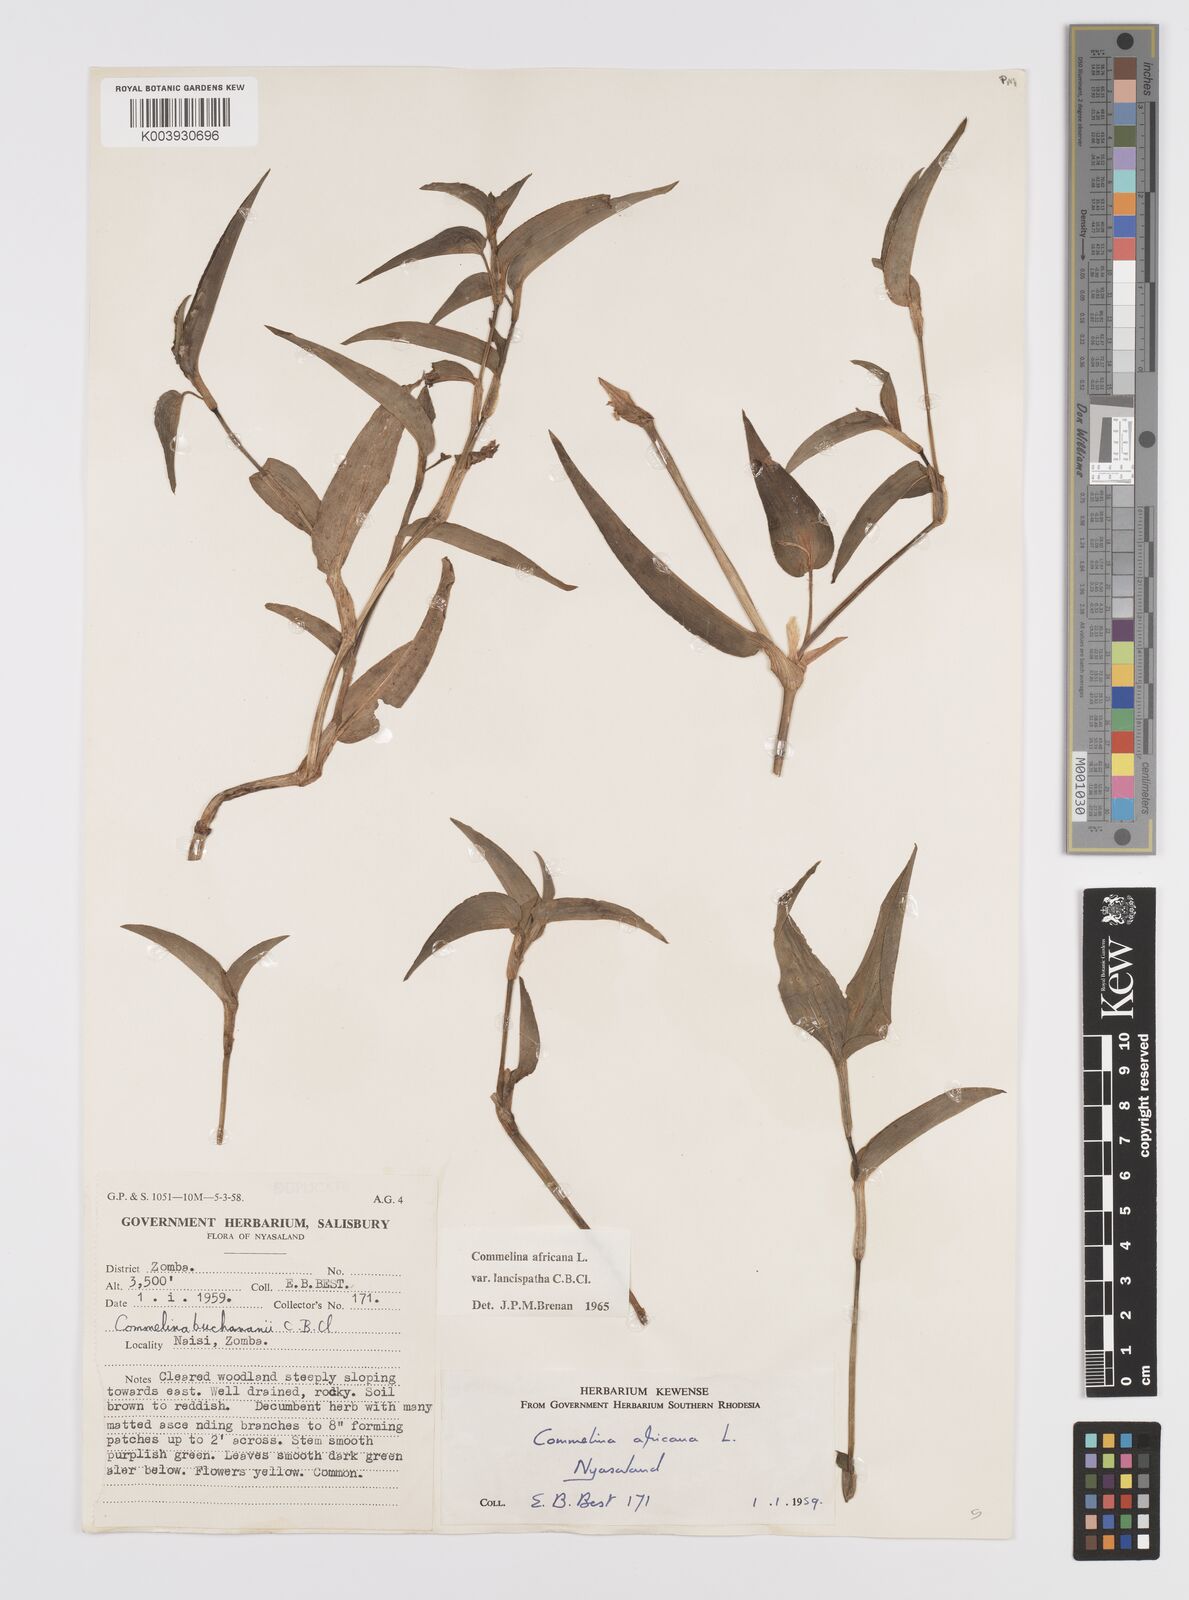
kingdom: Plantae
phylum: Tracheophyta
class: Liliopsida
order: Commelinales
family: Commelinaceae
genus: Commelina
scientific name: Commelina africana
